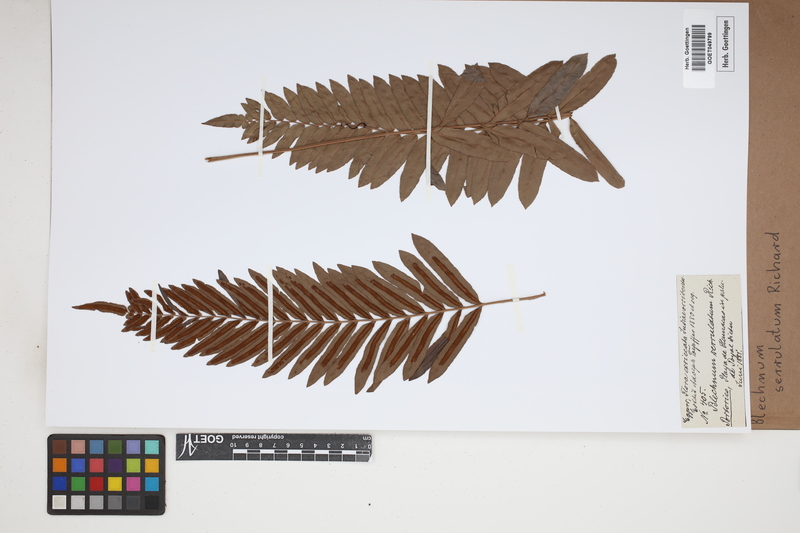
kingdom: Plantae
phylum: Tracheophyta
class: Polypodiopsida
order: Polypodiales
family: Blechnaceae
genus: Telmatoblechnum
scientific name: Telmatoblechnum serrulatum
